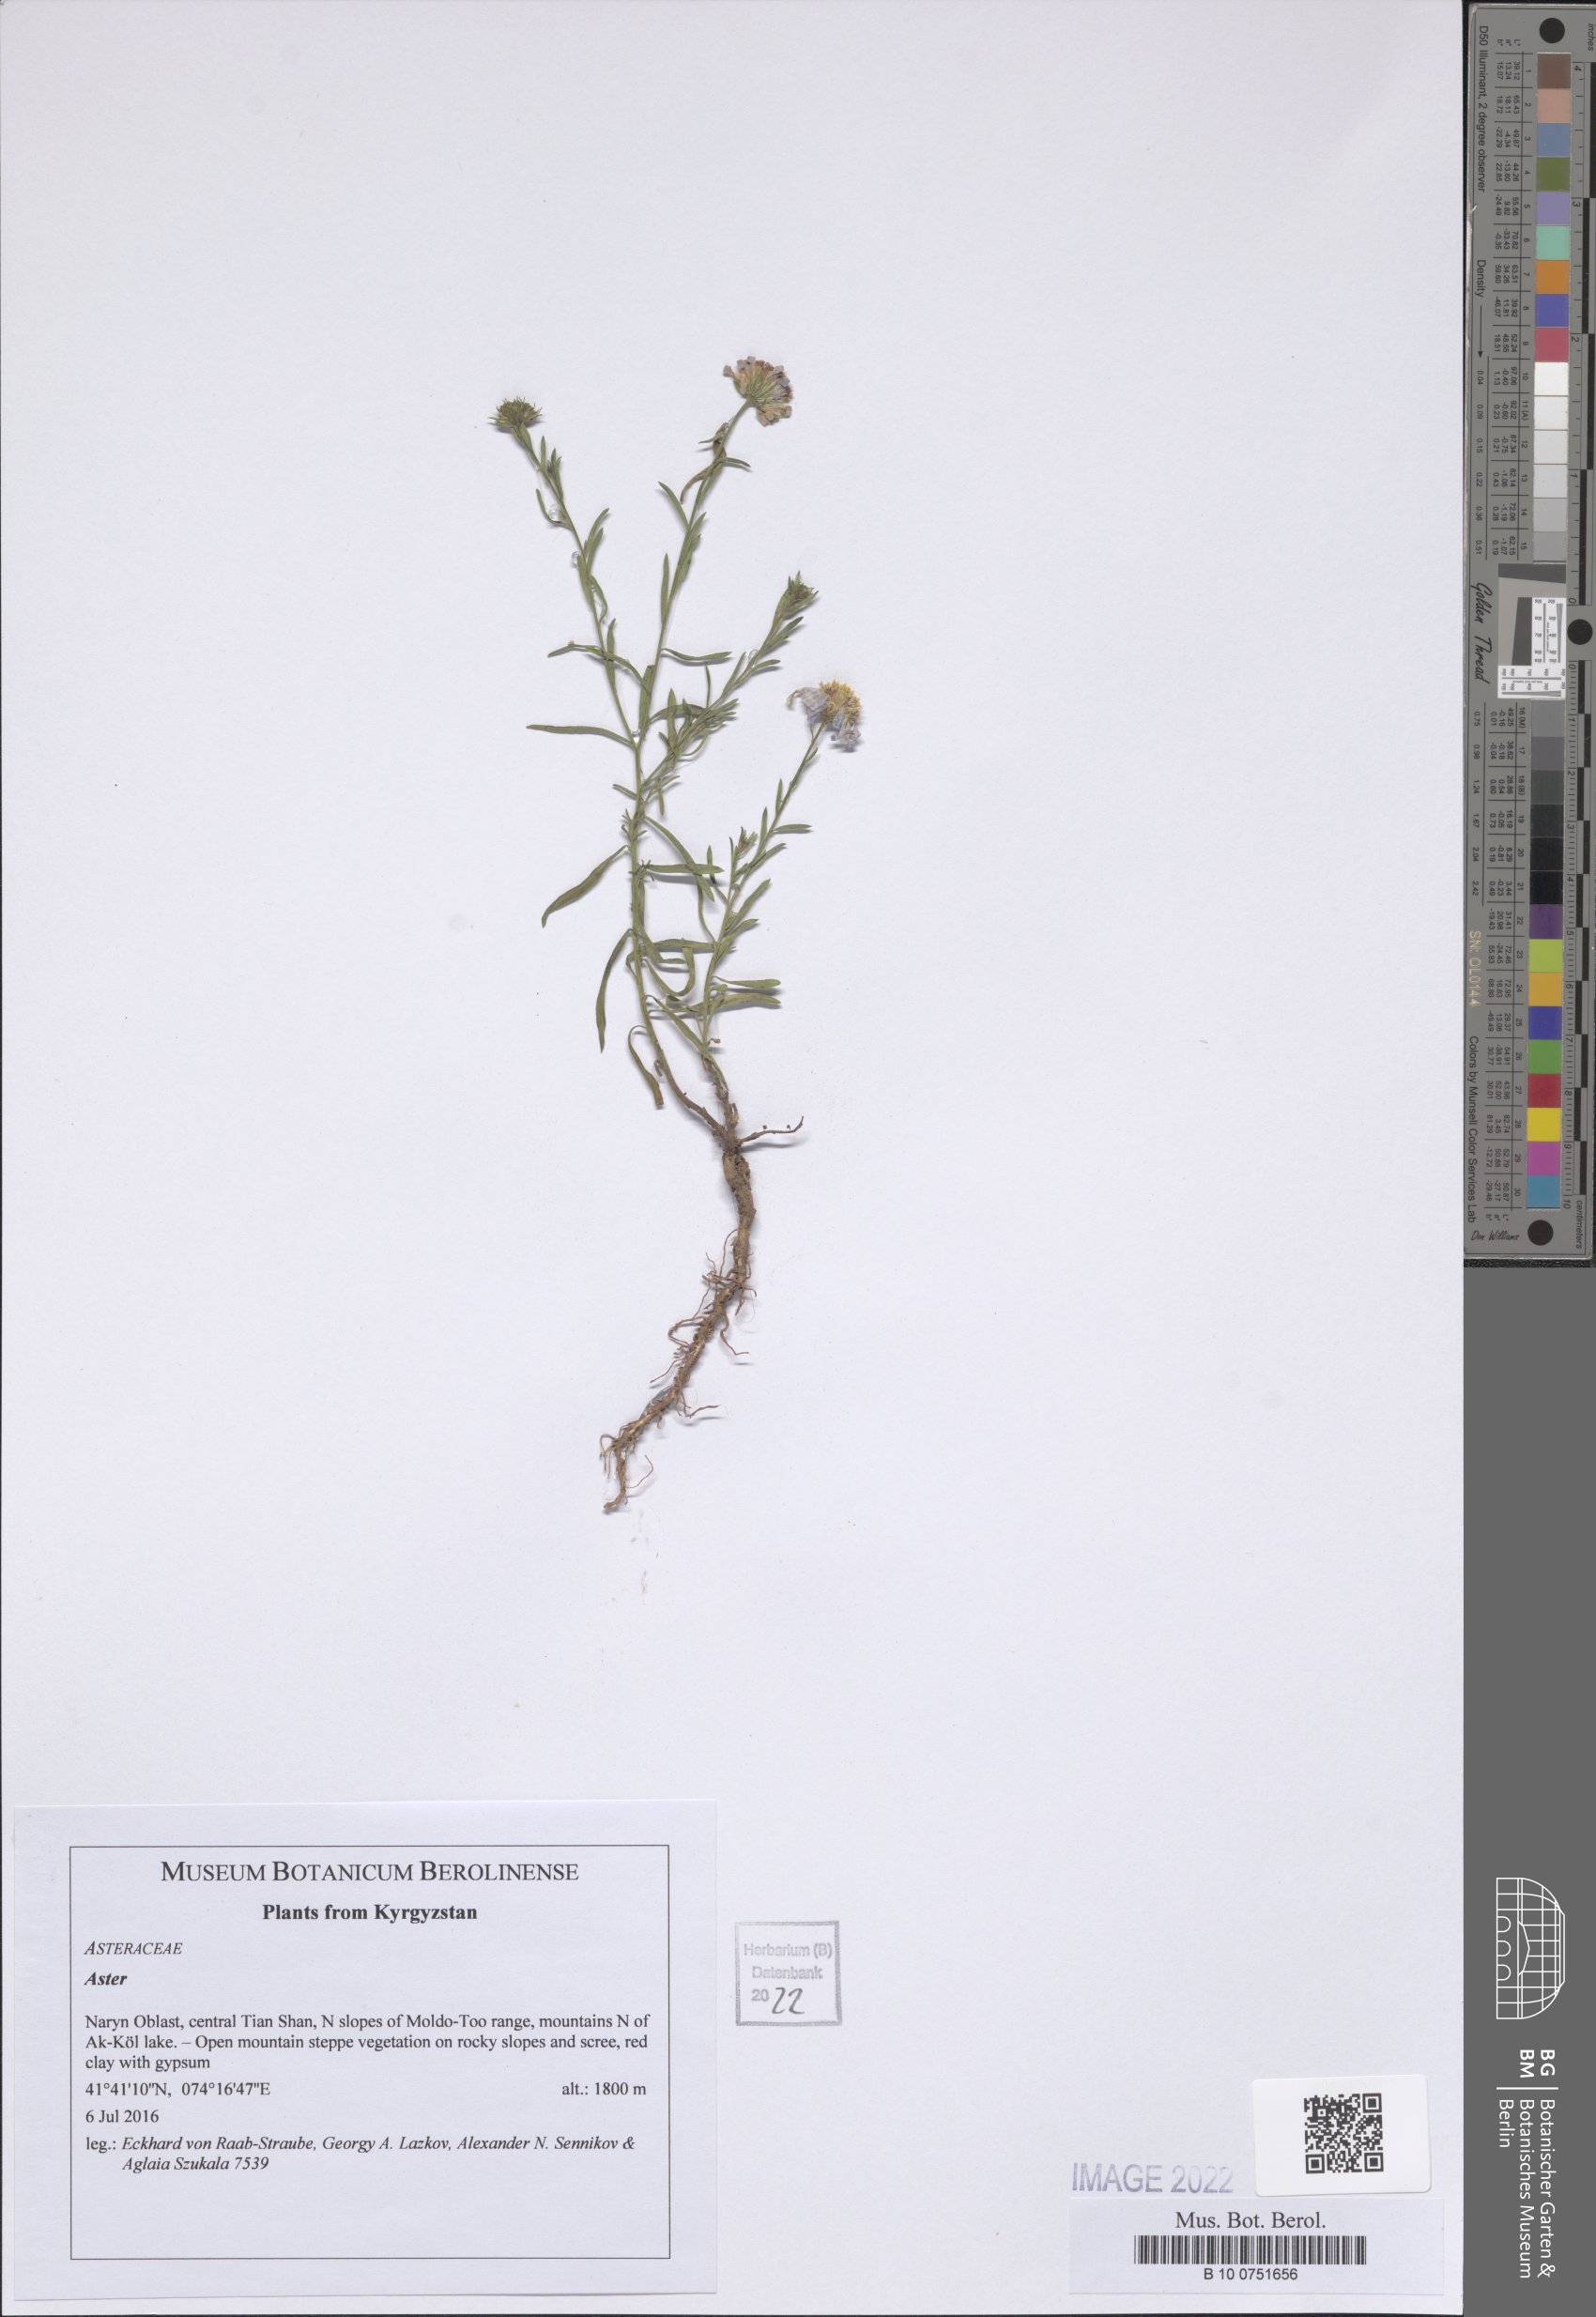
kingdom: Plantae
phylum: Tracheophyta
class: Magnoliopsida
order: Asterales
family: Asteraceae
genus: Aster
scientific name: Aster
